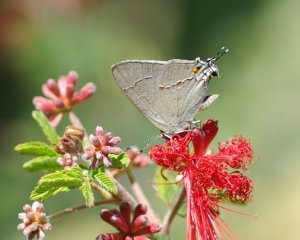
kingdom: Animalia
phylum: Arthropoda
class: Insecta
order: Lepidoptera
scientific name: Lepidoptera
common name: Butterflies
